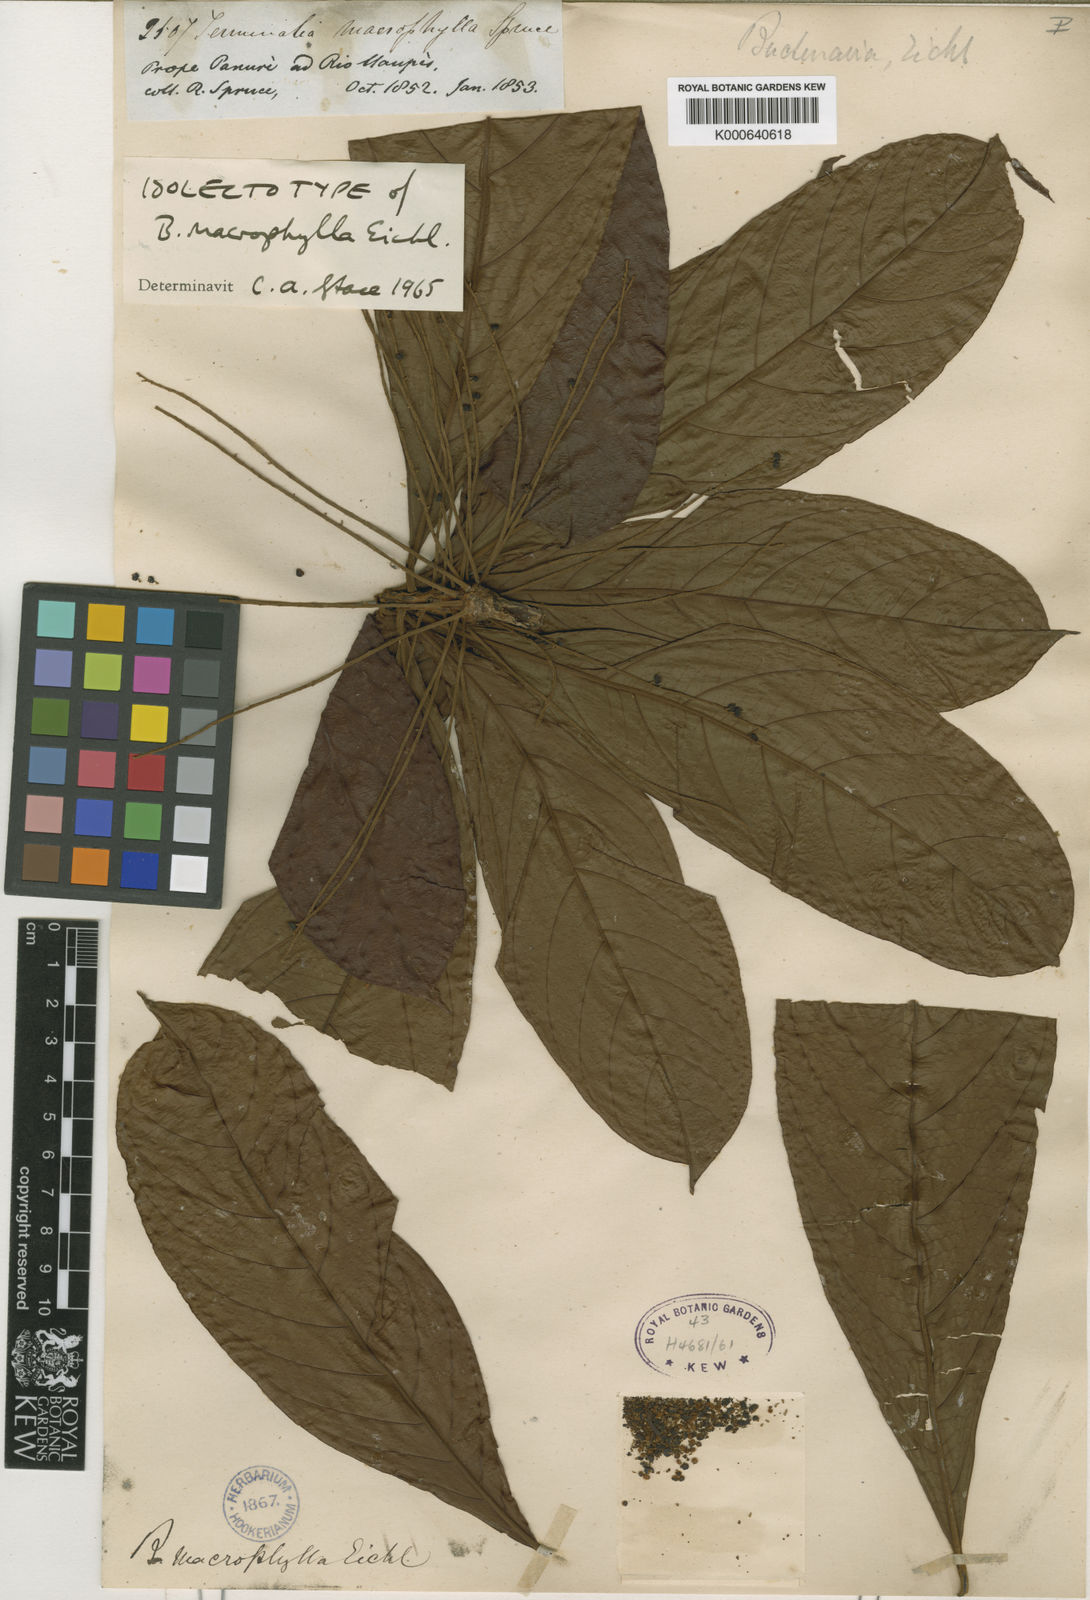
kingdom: Plantae
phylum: Tracheophyta
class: Magnoliopsida
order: Myrtales
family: Combretaceae
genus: Terminalia
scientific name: Terminalia macrophylla
